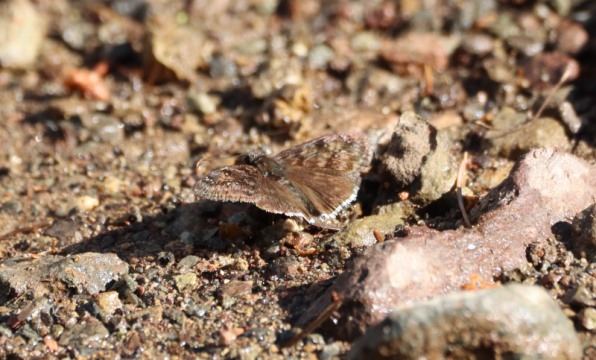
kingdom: Animalia
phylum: Arthropoda
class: Insecta
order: Lepidoptera
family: Hesperiidae
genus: Erynnis
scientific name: Erynnis tristis
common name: Mournful Duskywing
